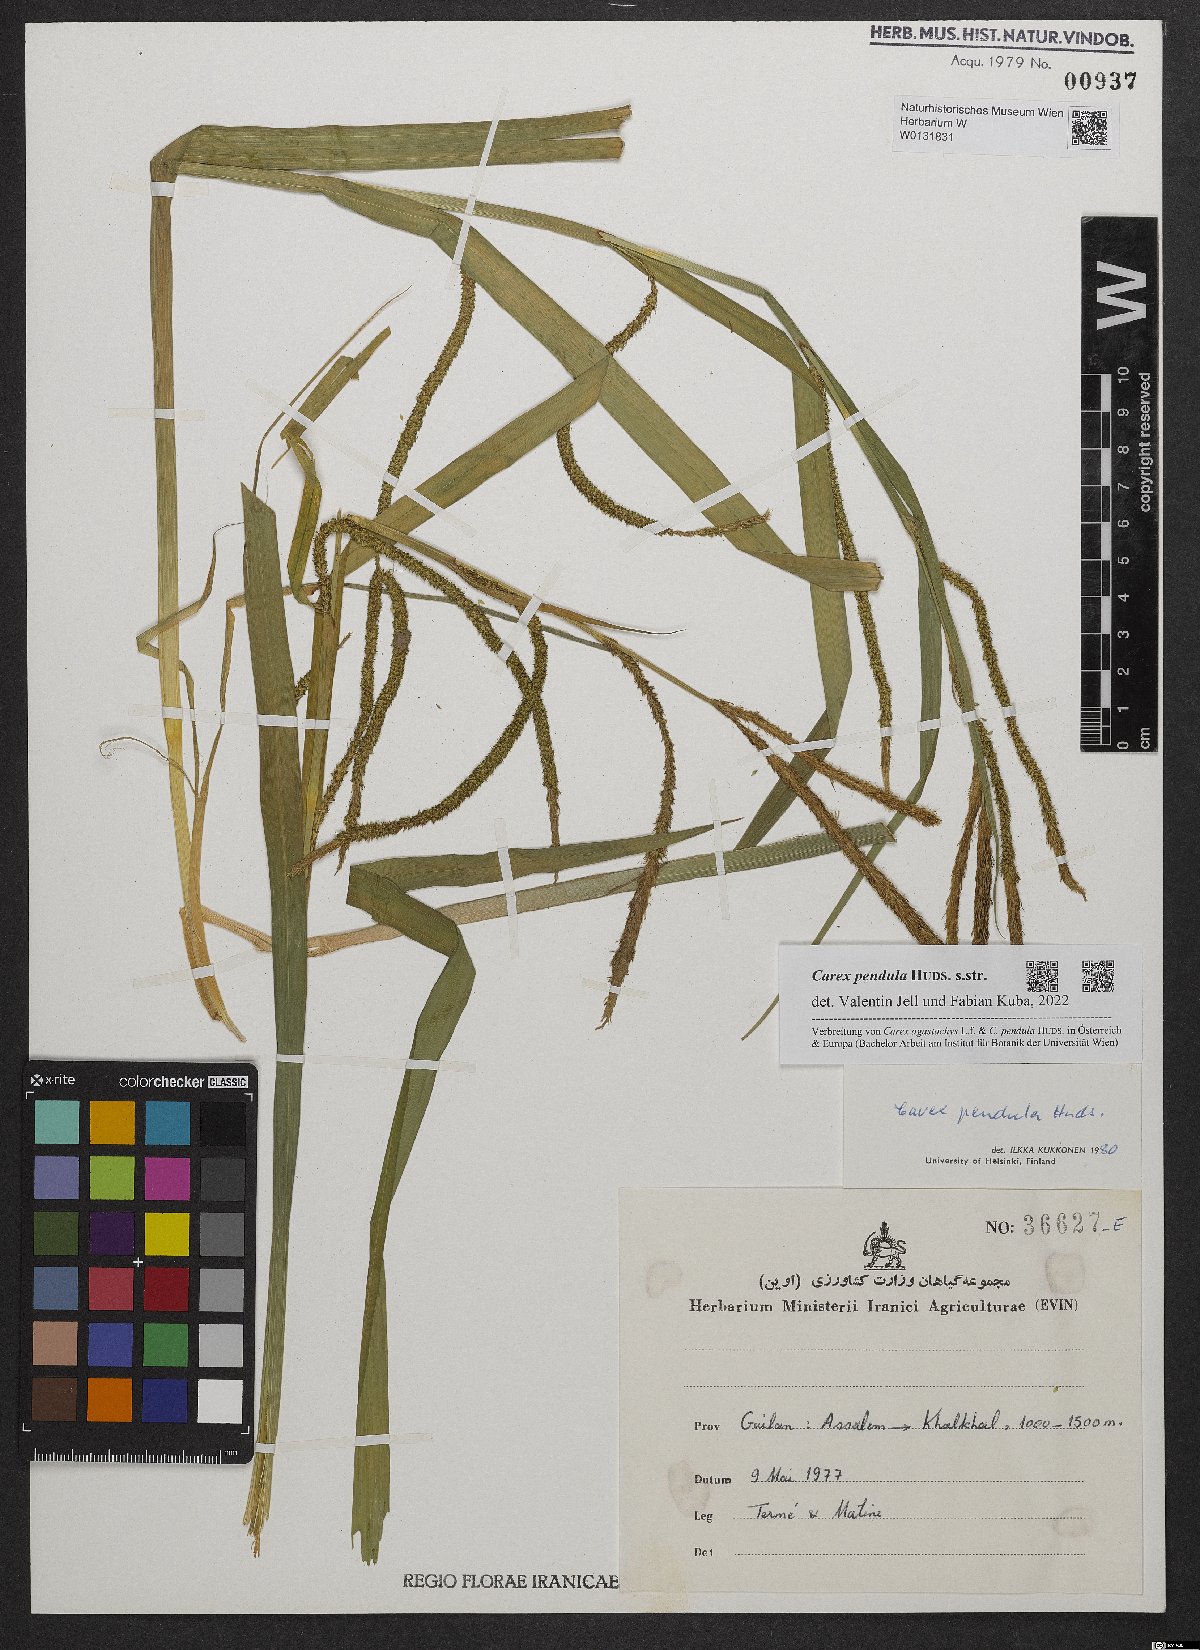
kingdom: Plantae
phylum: Tracheophyta
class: Liliopsida
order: Poales
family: Cyperaceae
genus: Carex
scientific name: Carex pendula
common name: Pendulous sedge
